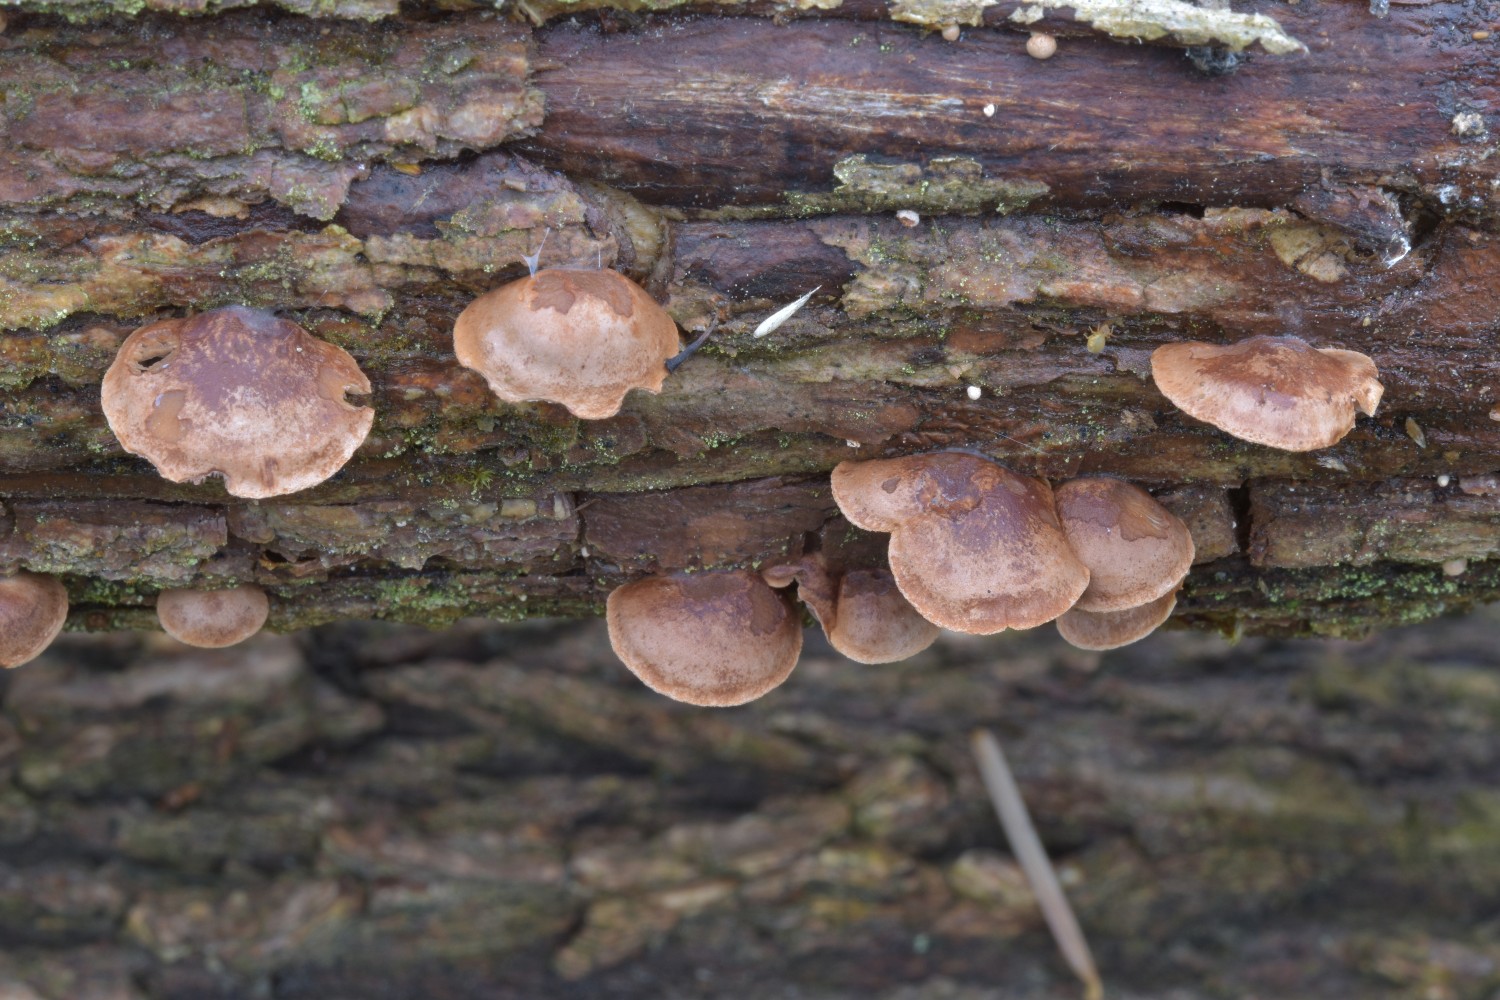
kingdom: Fungi
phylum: Basidiomycota
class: Agaricomycetes
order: Agaricales
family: Strophariaceae
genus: Deconica
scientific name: Deconica horizontalis
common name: ved-stråhat
